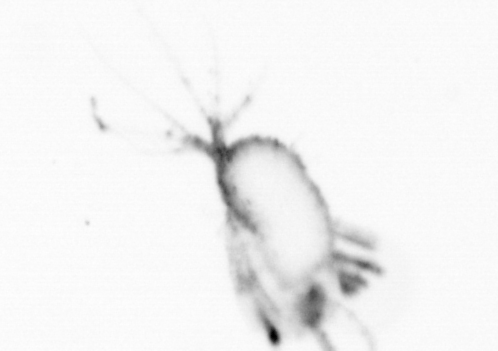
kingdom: Animalia
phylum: Arthropoda
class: Copepoda
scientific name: Copepoda
